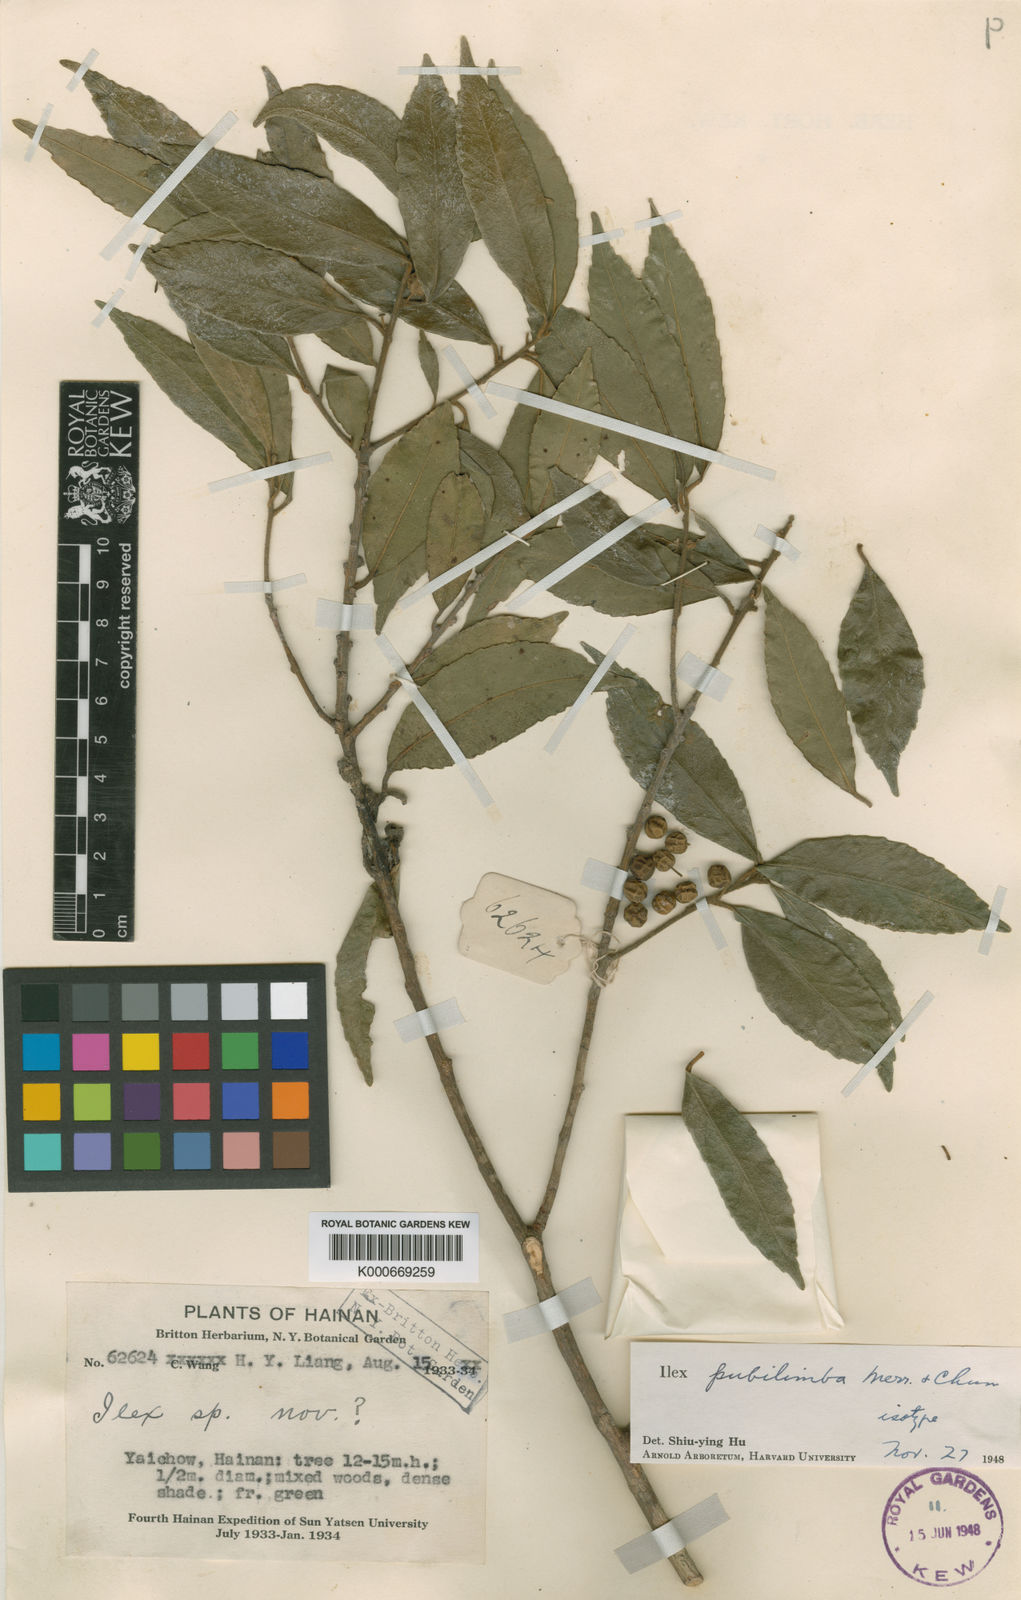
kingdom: Plantae
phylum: Tracheophyta
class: Magnoliopsida
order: Aquifoliales
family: Aquifoliaceae
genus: Ilex
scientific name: Ilex pubilimba
